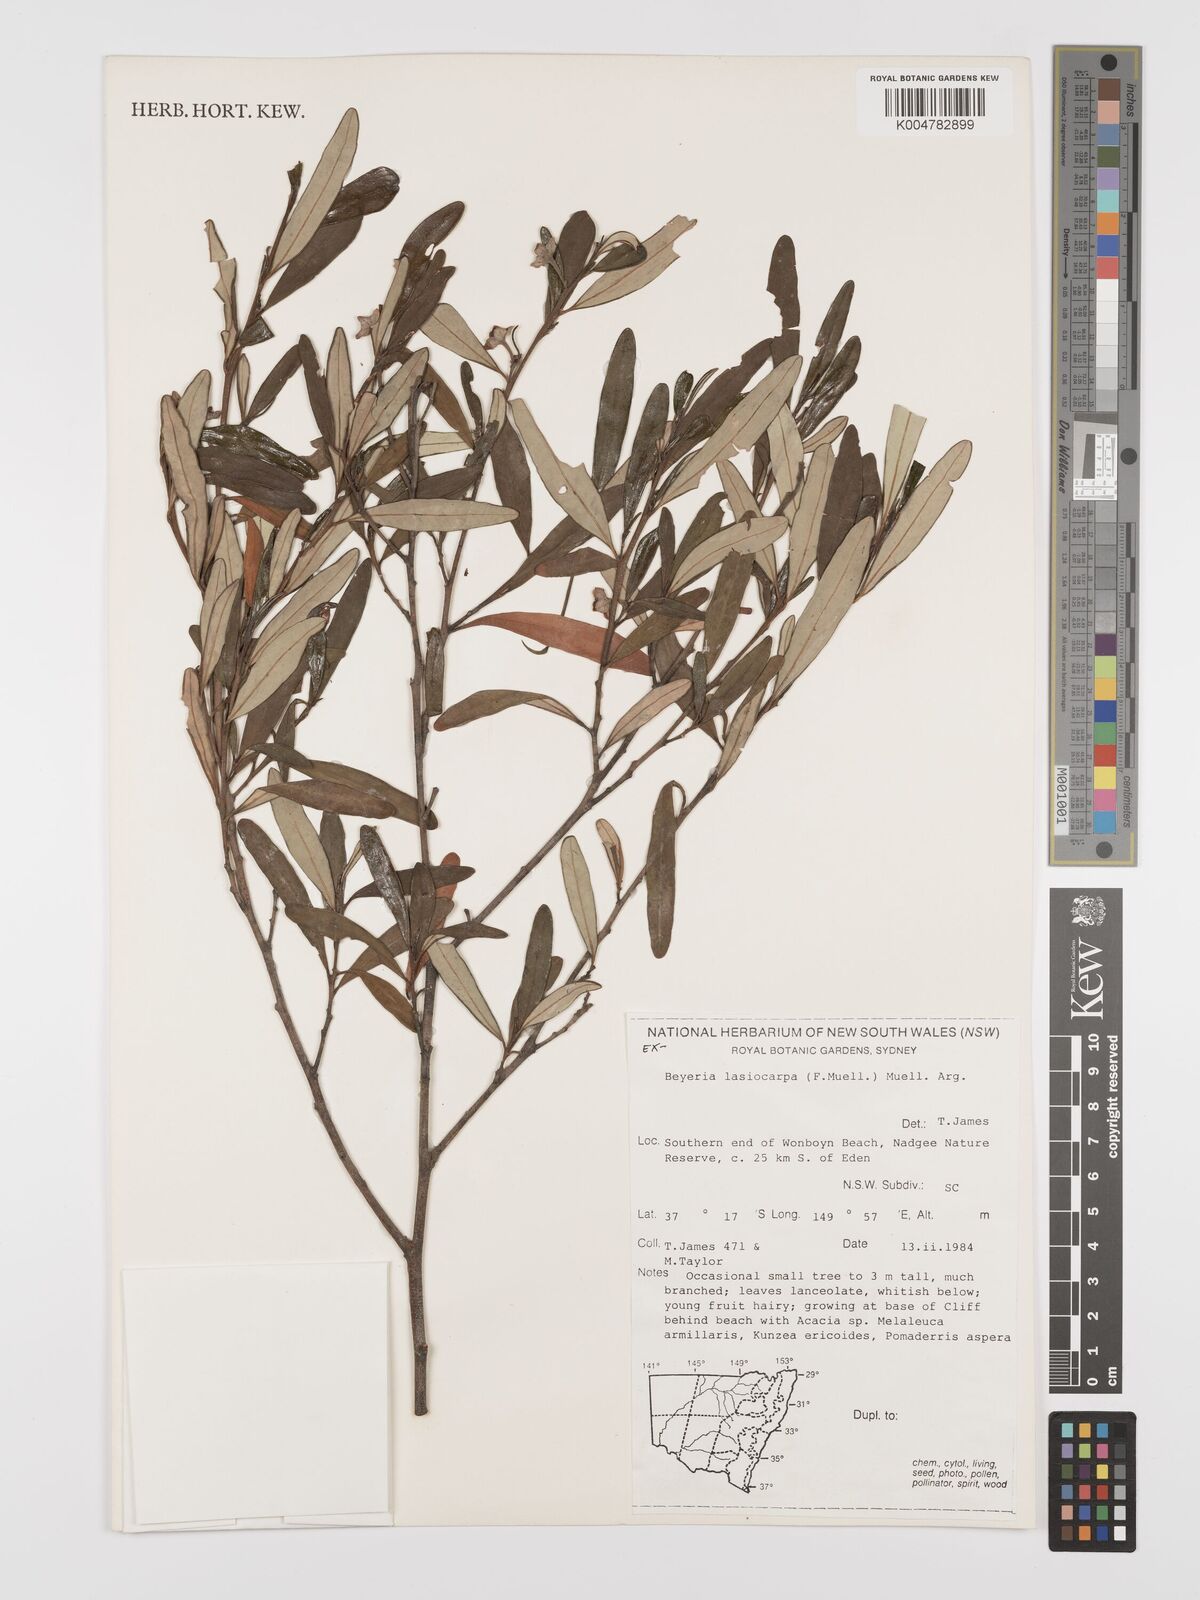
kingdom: Plantae
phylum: Tracheophyta
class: Magnoliopsida
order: Malpighiales
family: Euphorbiaceae
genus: Beyeria
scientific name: Beyeria lasiocarpa
